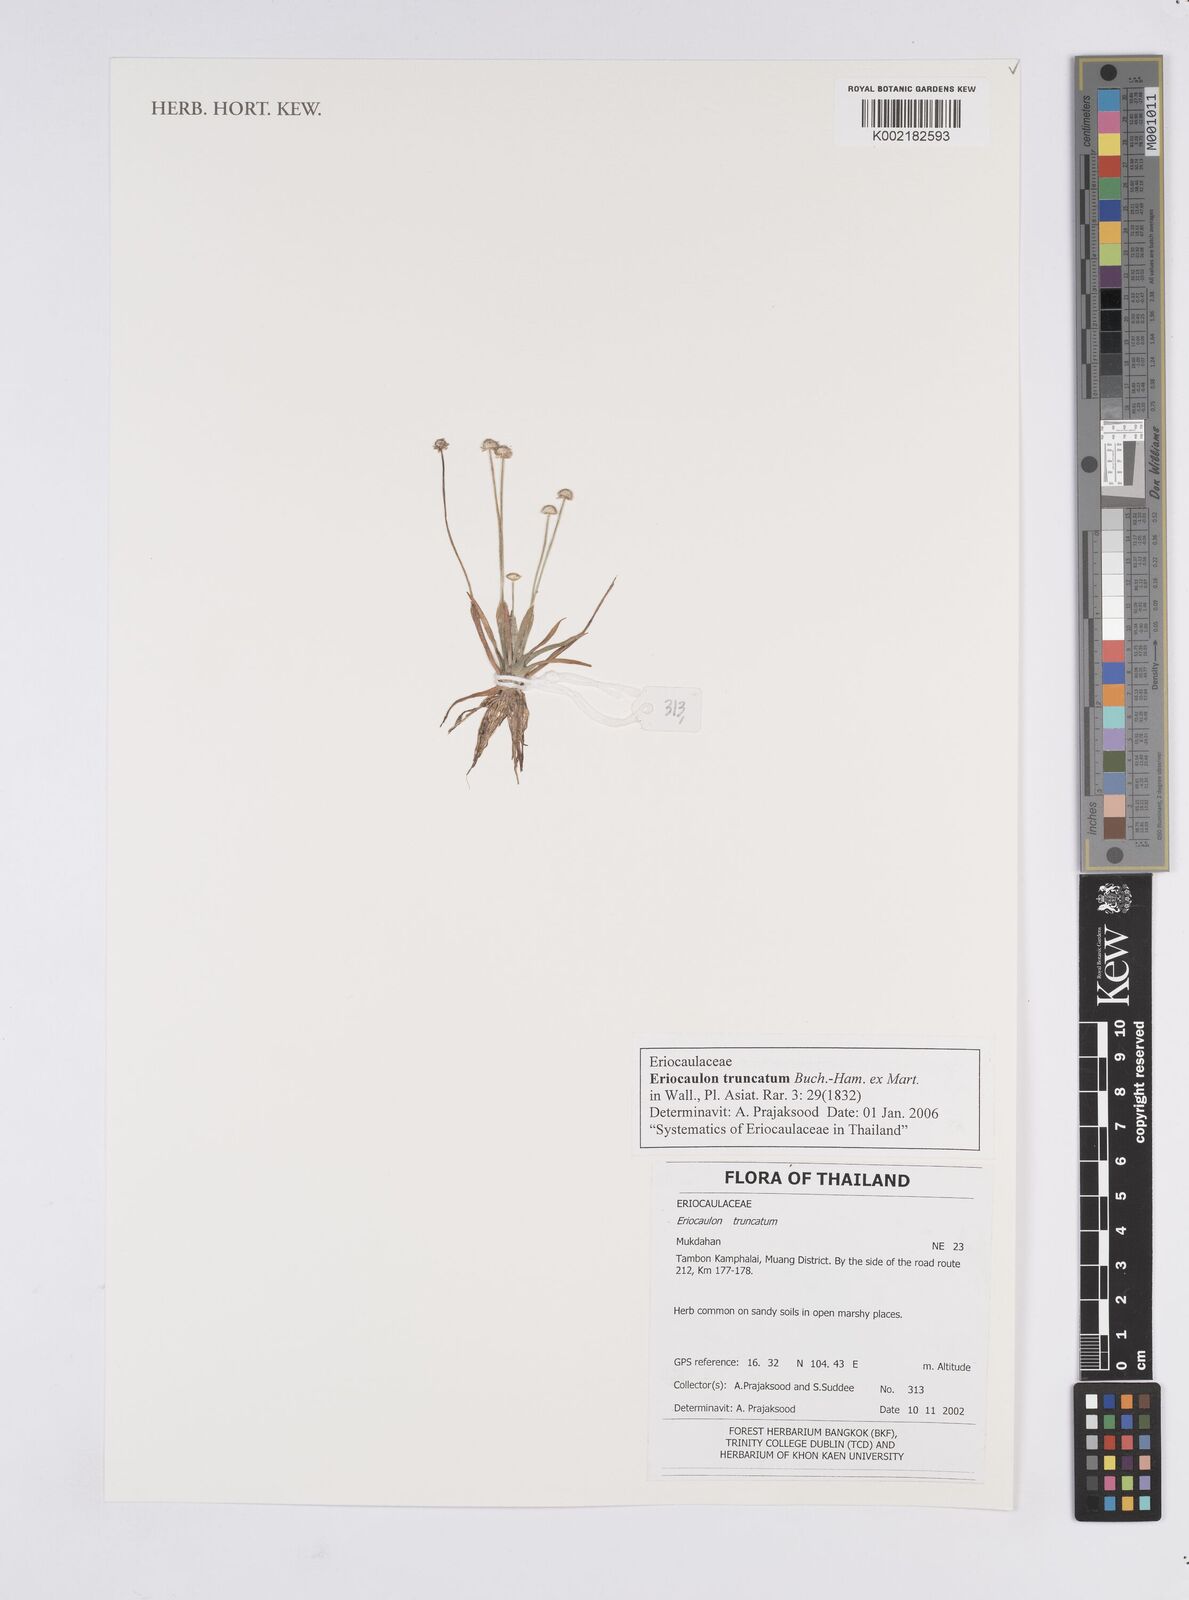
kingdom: Plantae
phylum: Tracheophyta
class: Liliopsida
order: Poales
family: Eriocaulaceae
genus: Eriocaulon
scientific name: Eriocaulon truncatum
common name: Short pipe-wort
